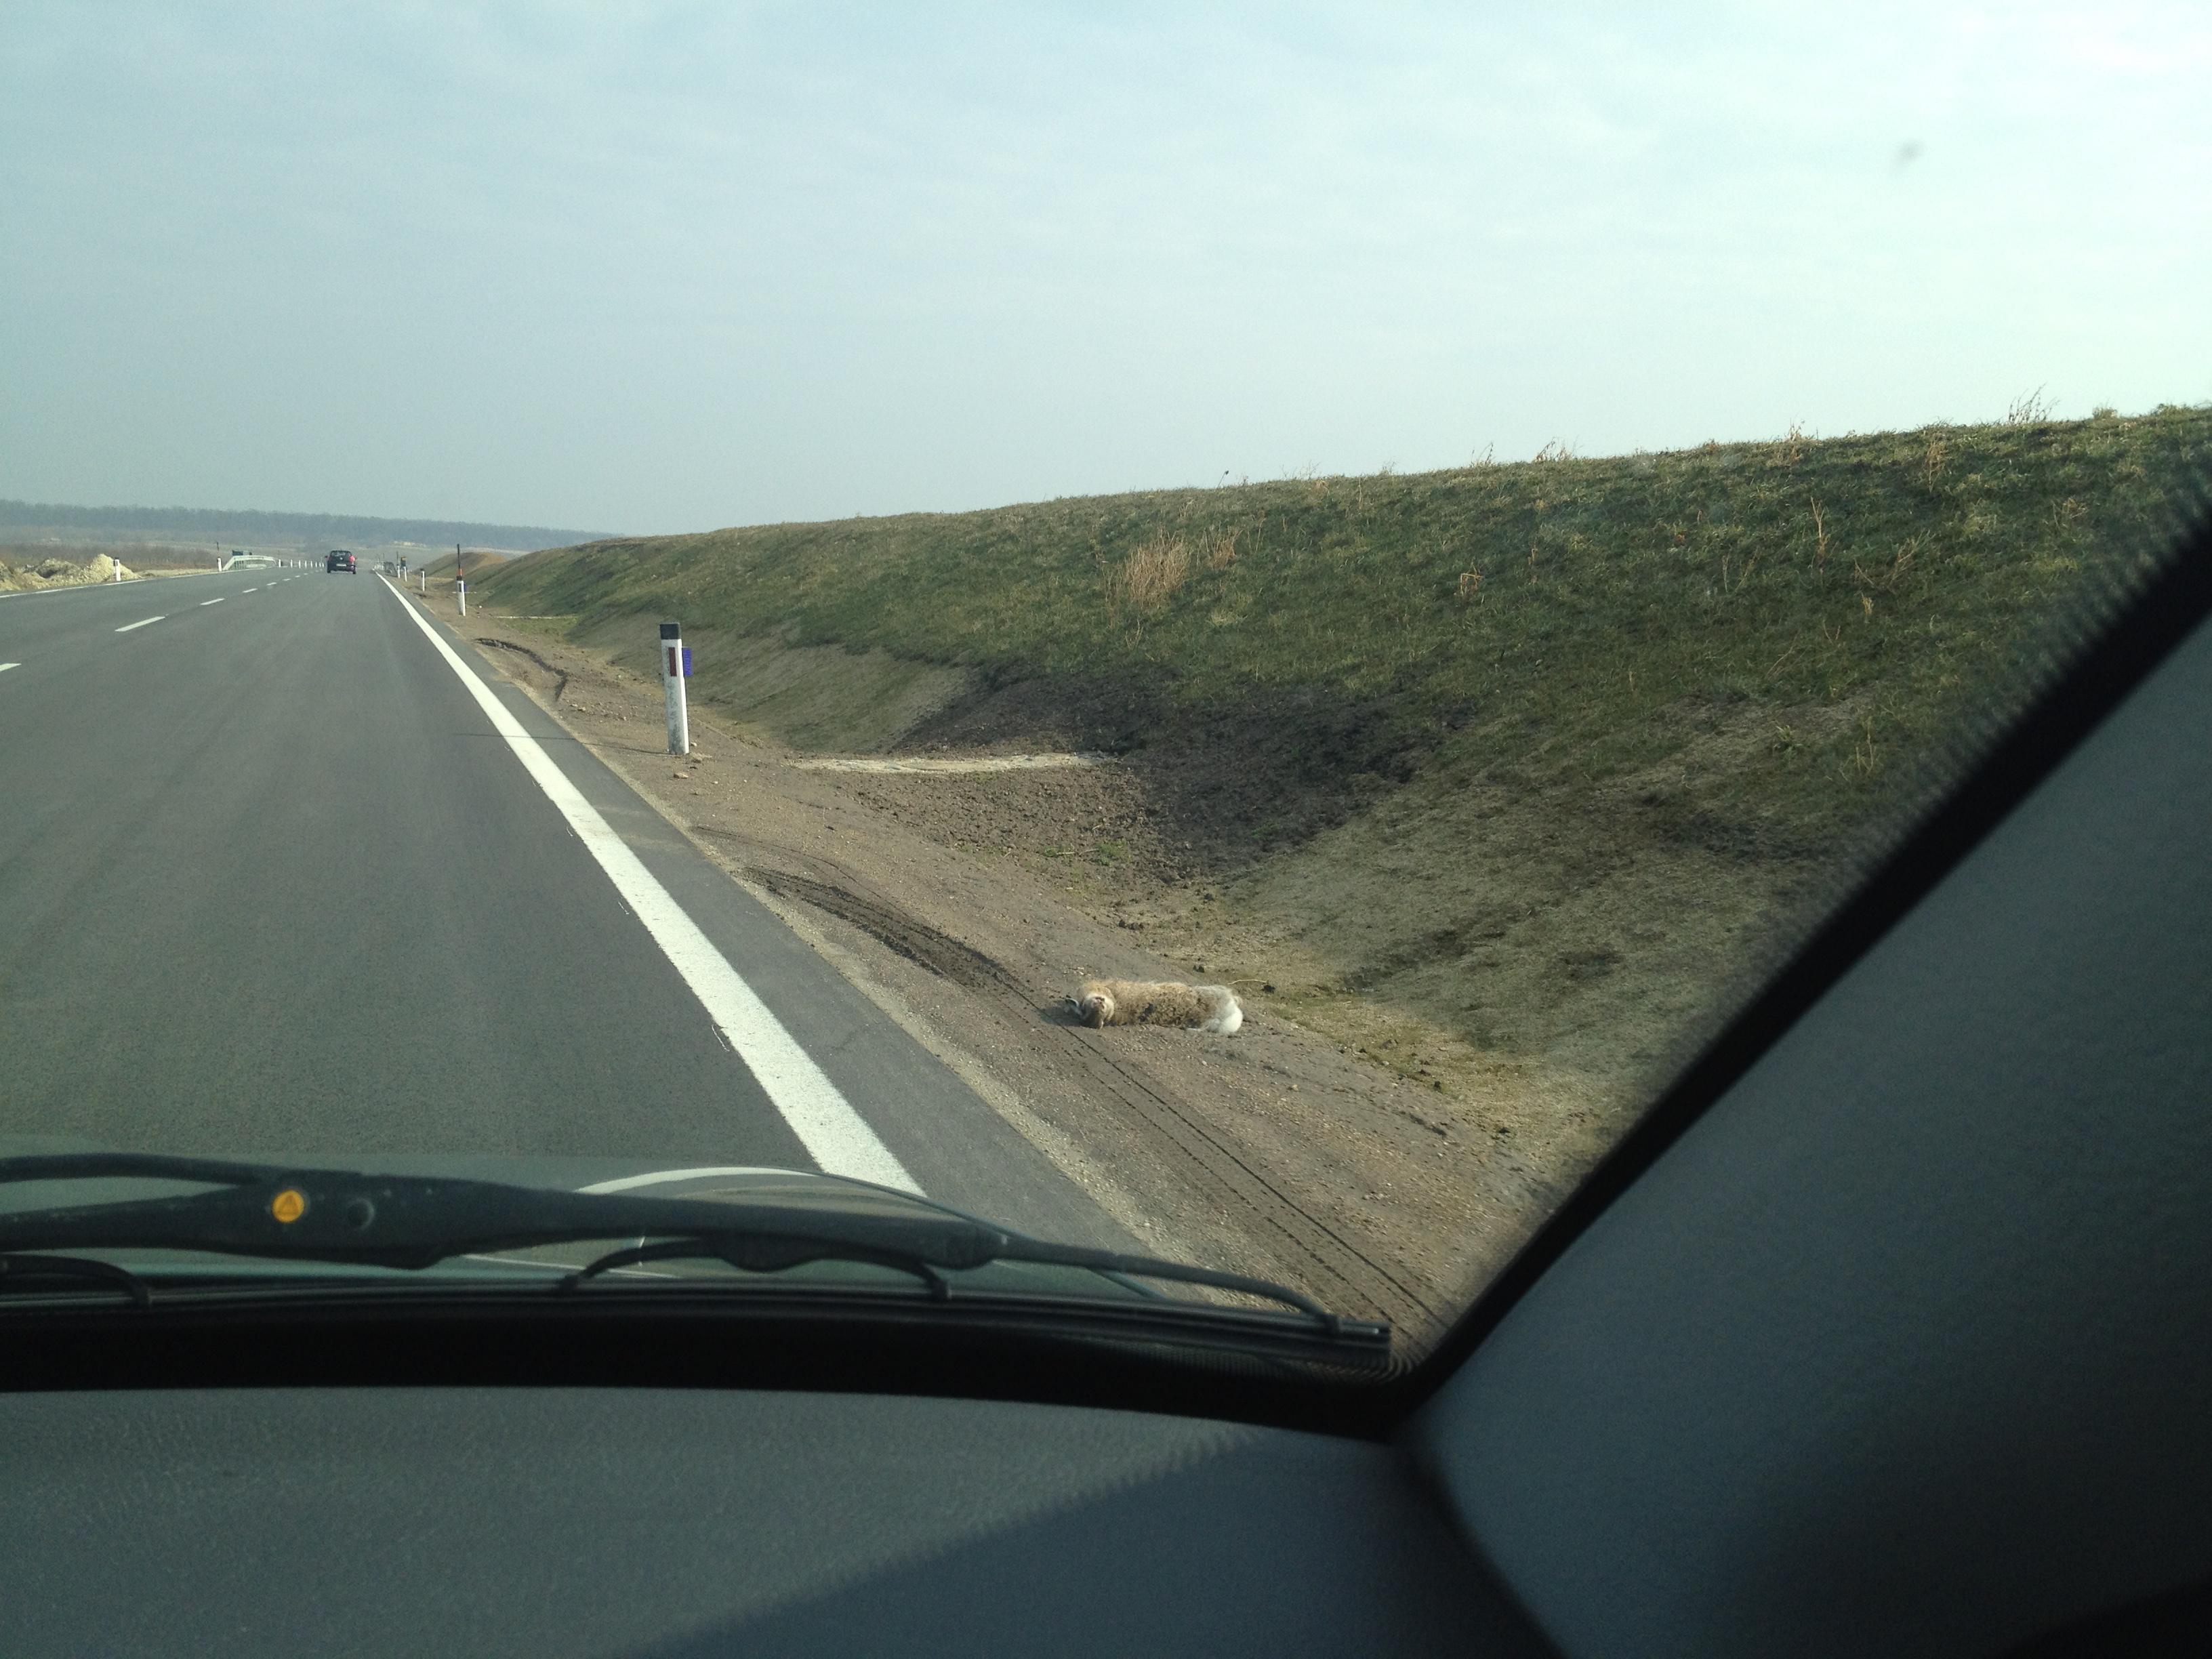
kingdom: Animalia
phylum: Chordata
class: Mammalia
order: Lagomorpha
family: Leporidae
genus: Lepus
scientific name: Lepus europaeus
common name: European hare
